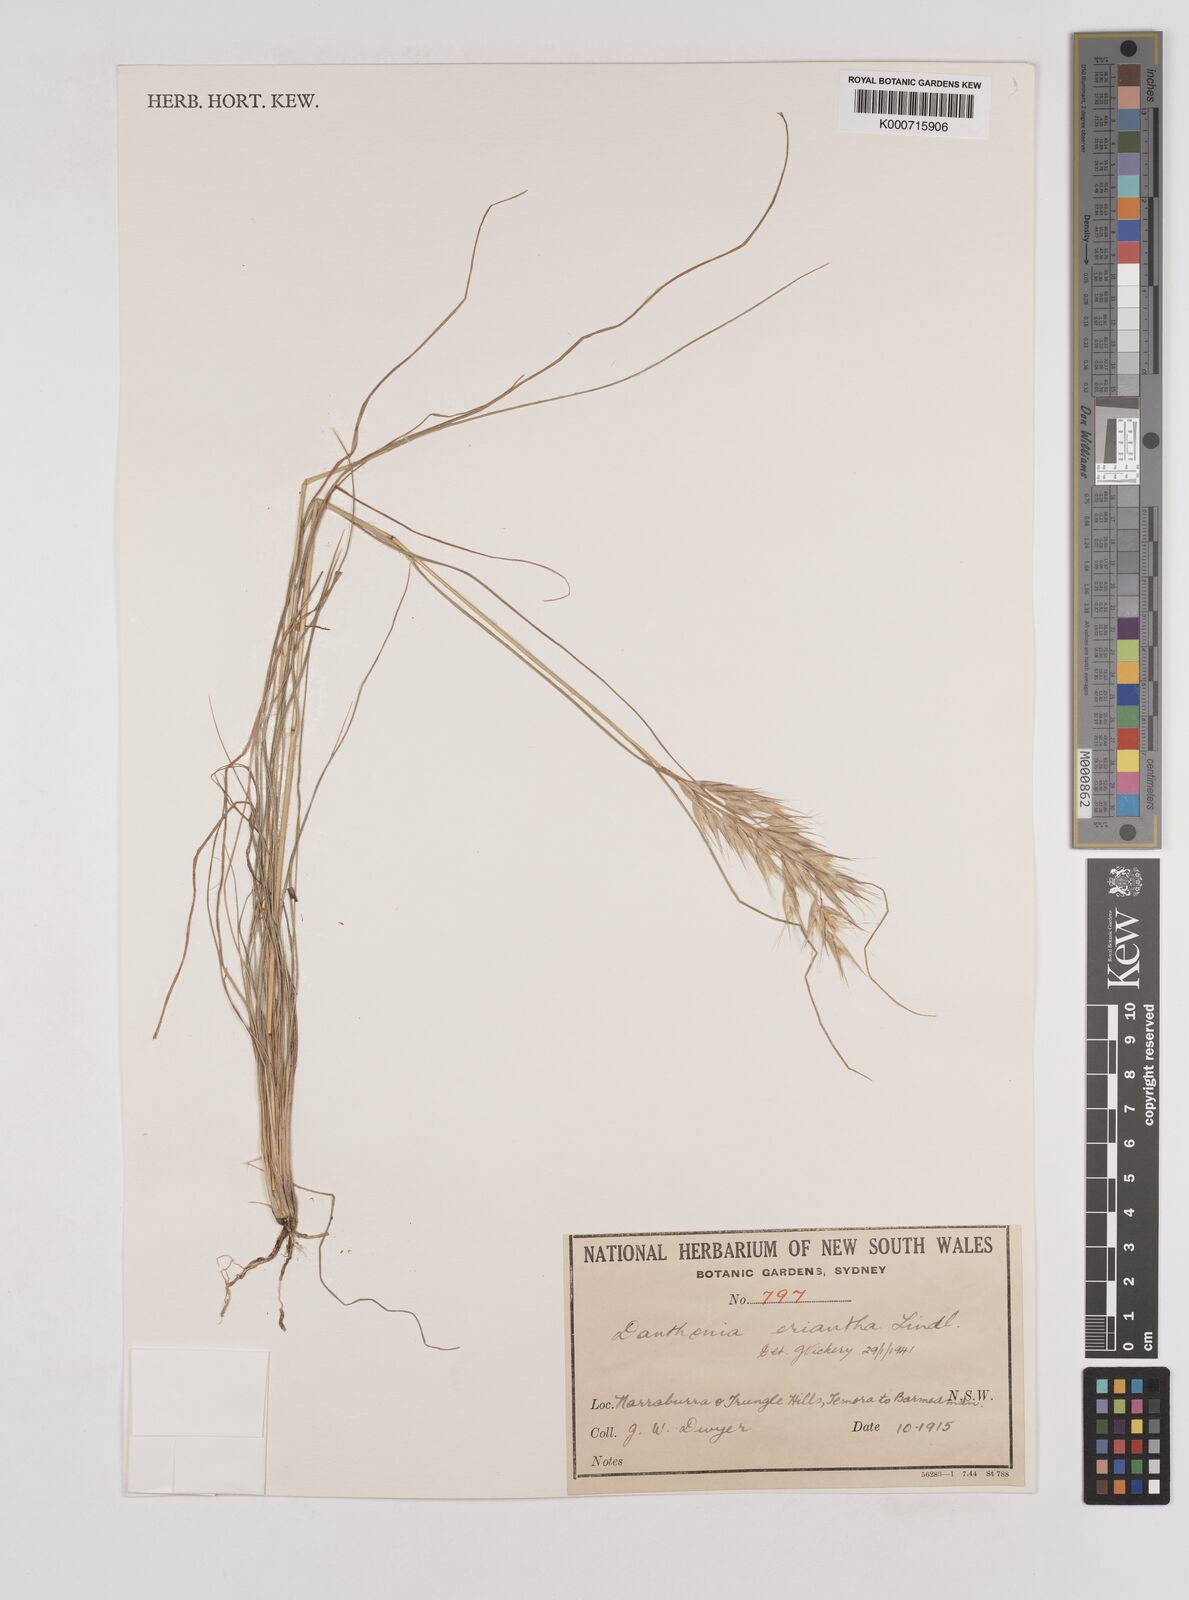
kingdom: Plantae
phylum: Tracheophyta
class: Liliopsida
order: Poales
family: Poaceae
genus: Rytidosperma
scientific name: Rytidosperma erianthum
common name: Hill wallaby grass
